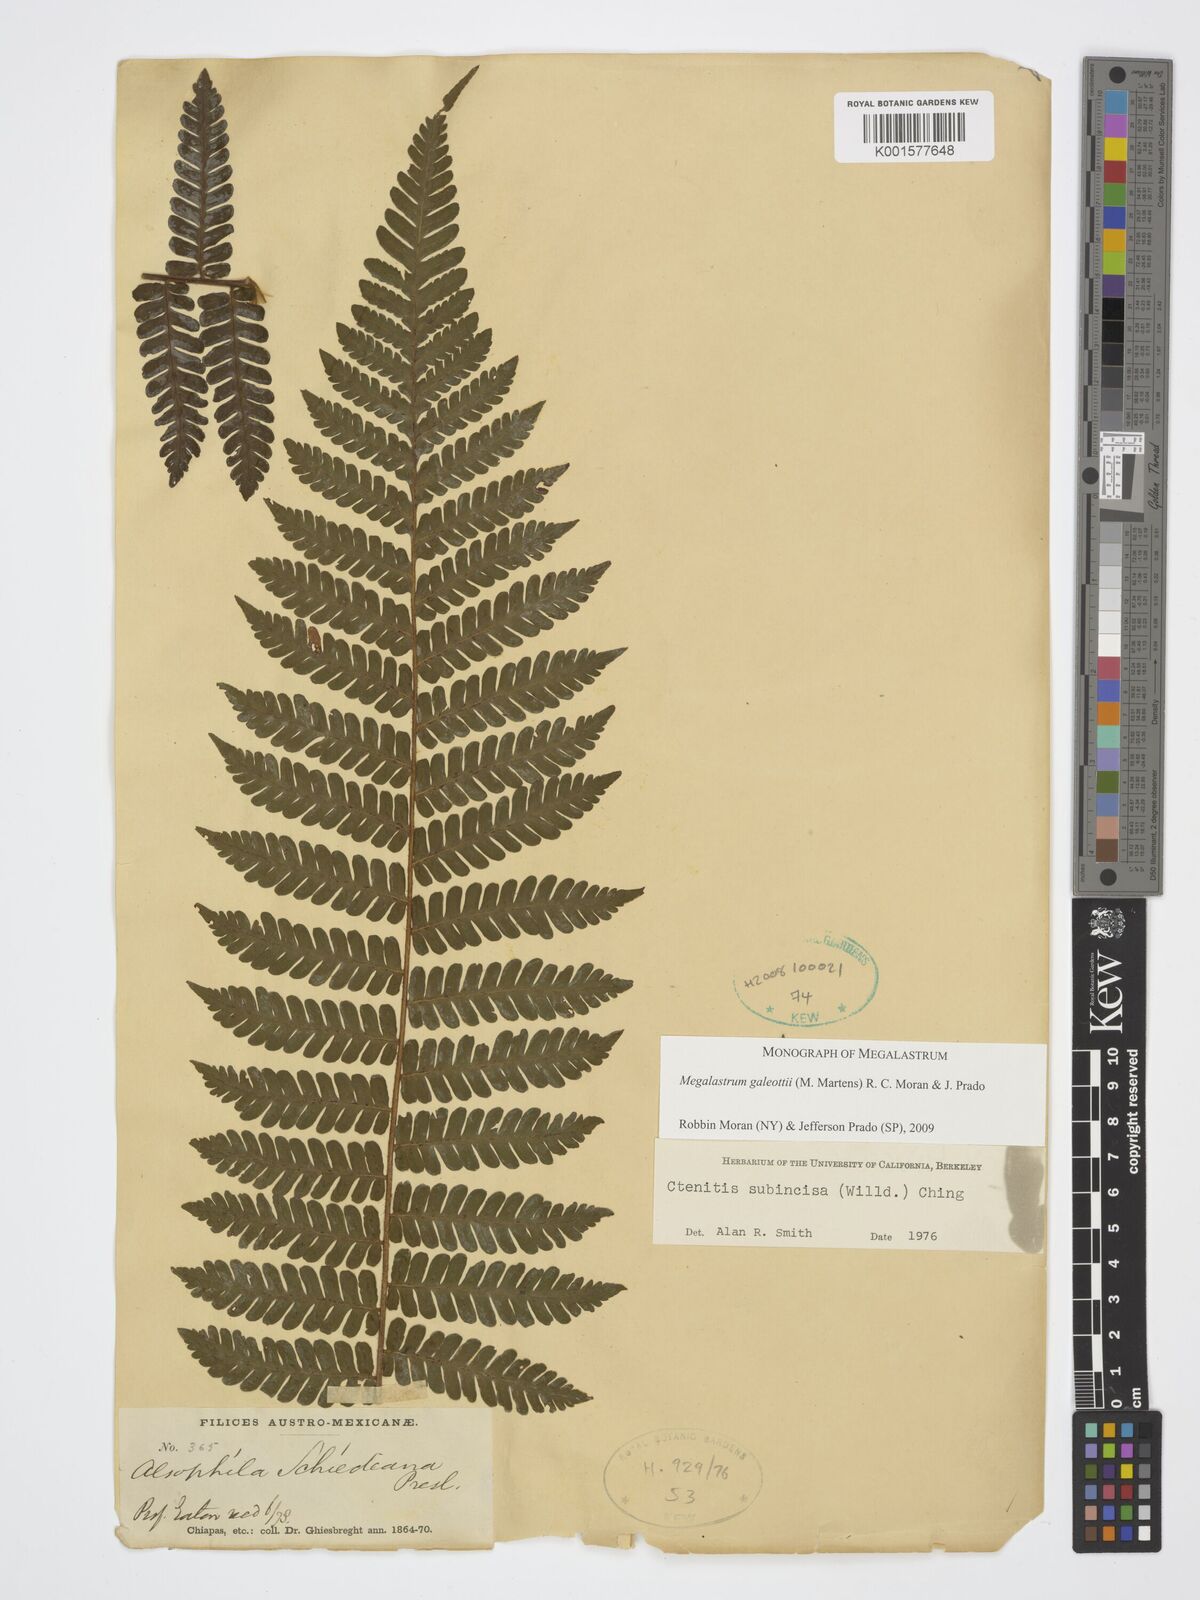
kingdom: Plantae
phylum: Tracheophyta
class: Polypodiopsida
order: Polypodiales
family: Dryopteridaceae
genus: Megalastrum
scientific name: Megalastrum galeottii
